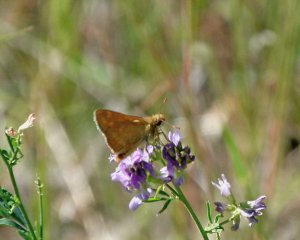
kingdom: Animalia
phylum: Arthropoda
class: Insecta
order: Lepidoptera
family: Hesperiidae
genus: Ochlodes
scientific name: Ochlodes sylvanoides
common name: Woodland Skipper
